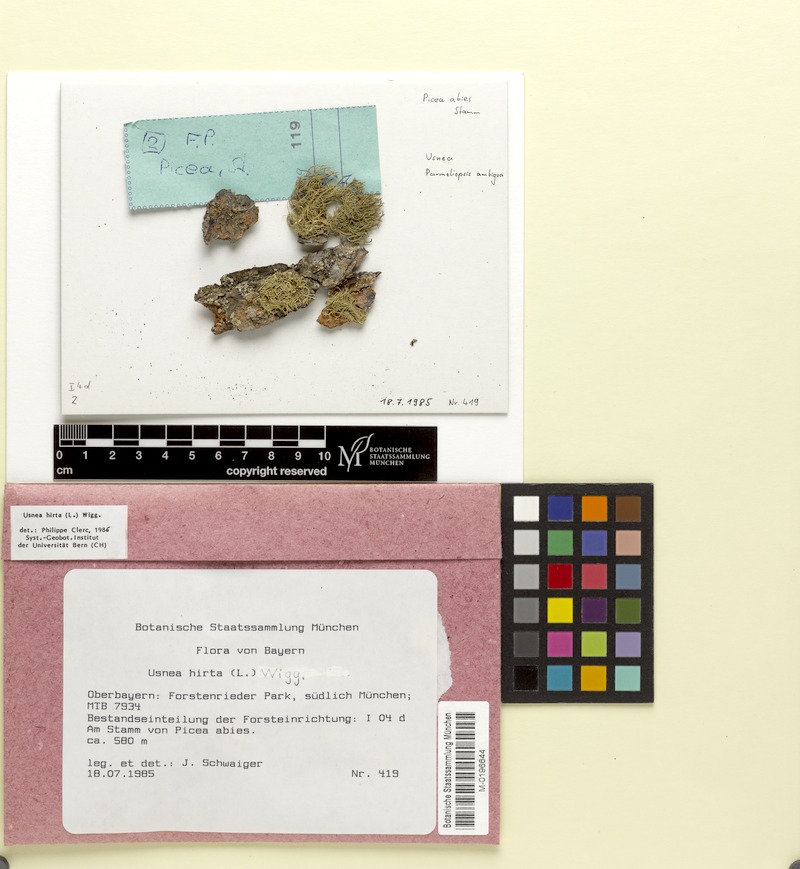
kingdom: Fungi
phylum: Ascomycota
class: Lecanoromycetes
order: Lecanorales
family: Parmeliaceae
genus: Usnea
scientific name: Usnea hirta
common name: Bristly beard lichen
